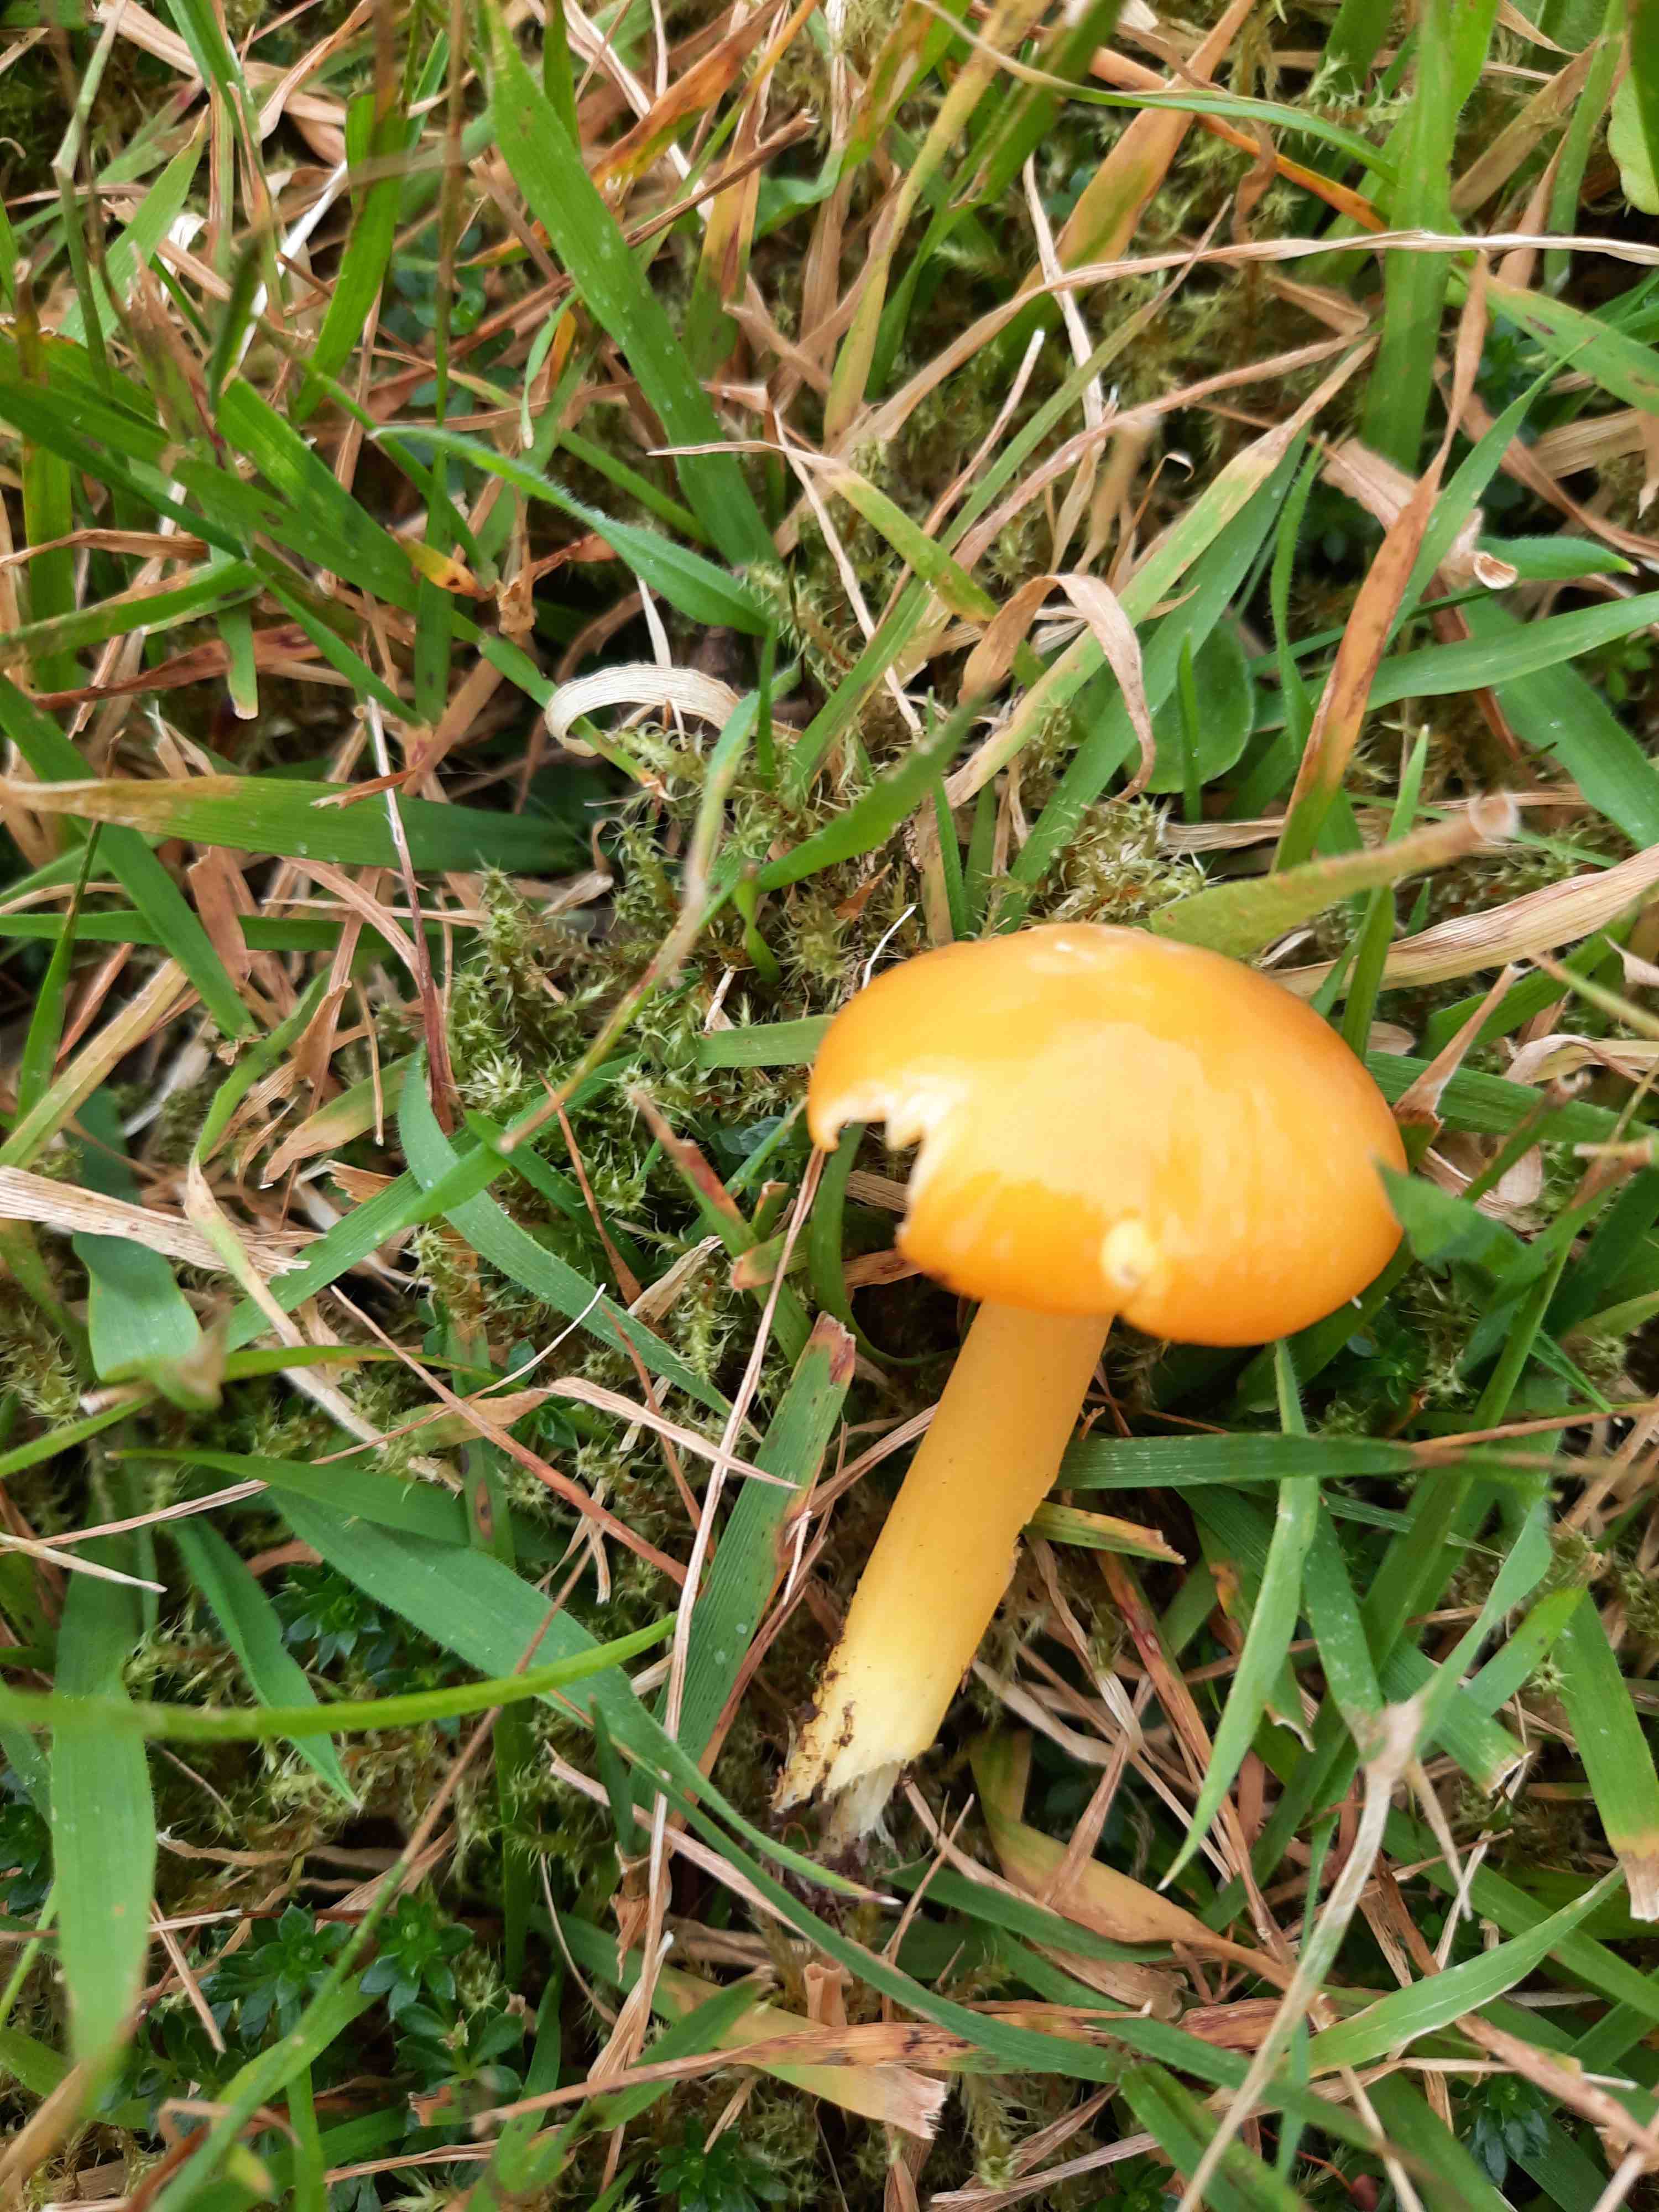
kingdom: Fungi
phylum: Basidiomycota
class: Agaricomycetes
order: Agaricales
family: Hygrophoraceae
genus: Hygrocybe
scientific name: Hygrocybe chlorophana
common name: gul vokshat
